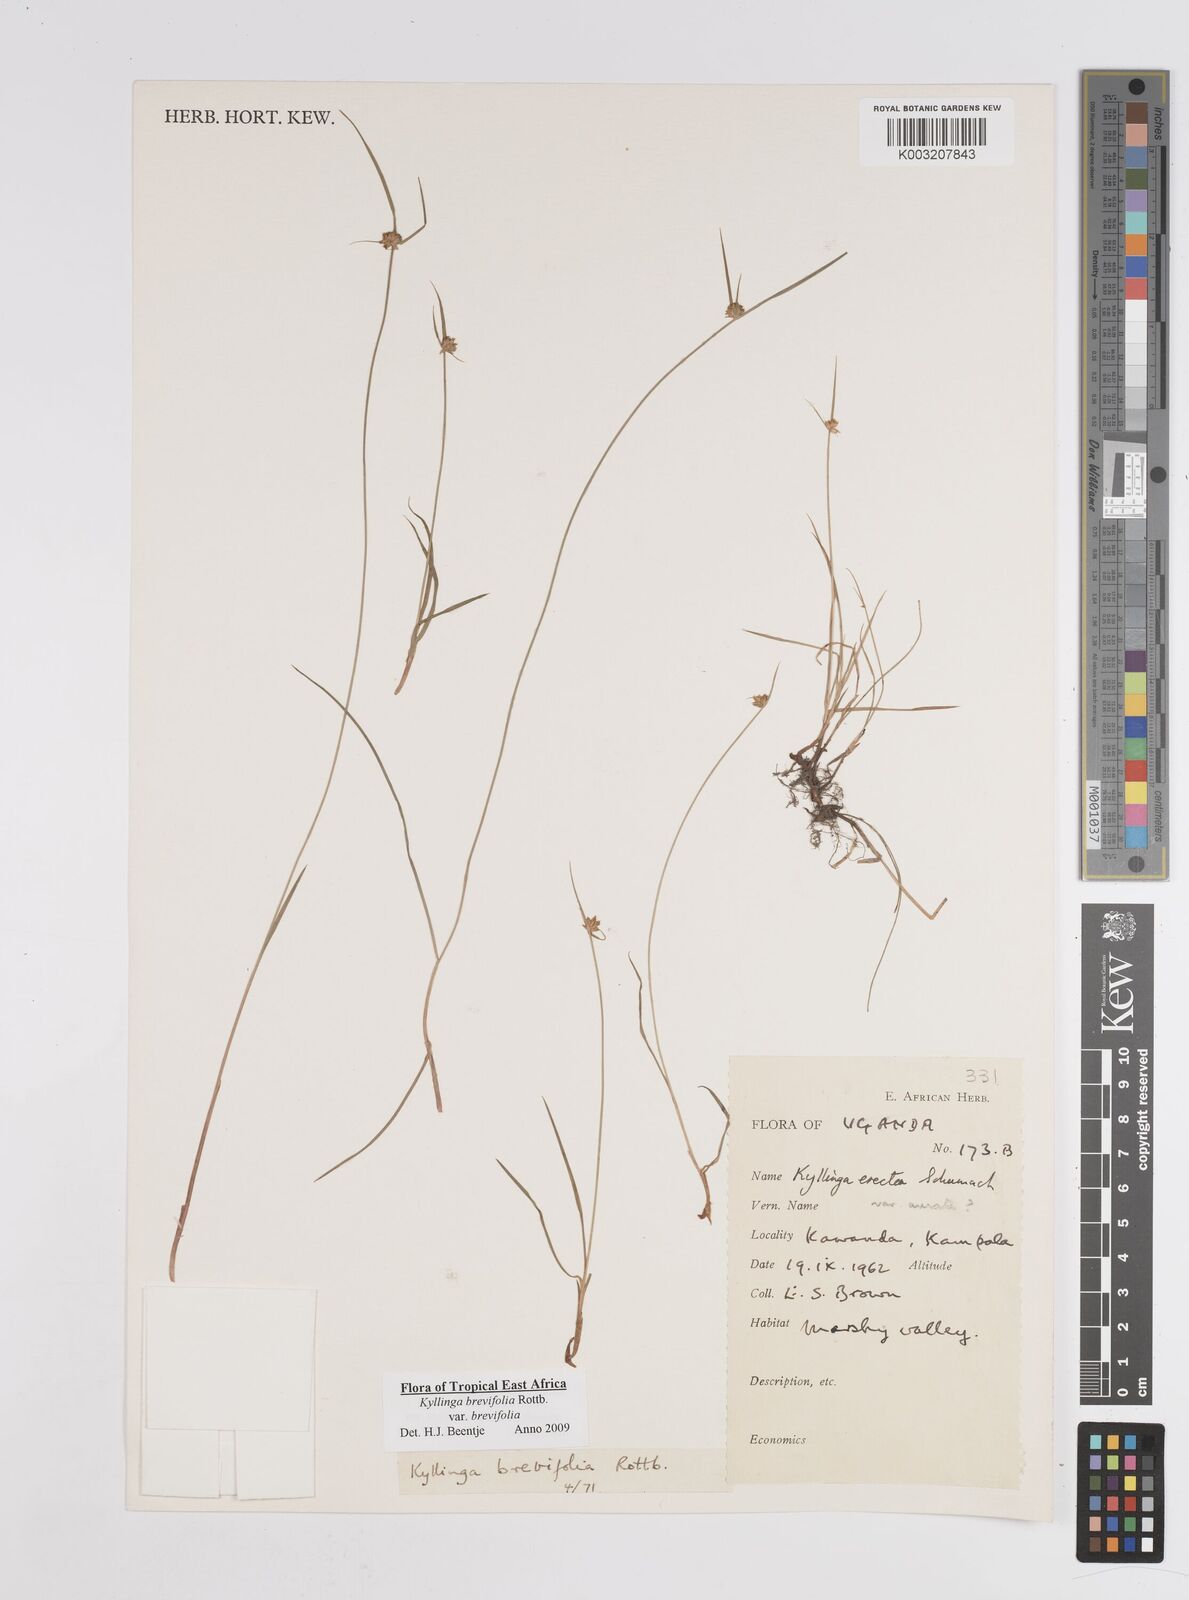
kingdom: Plantae
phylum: Tracheophyta
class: Liliopsida
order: Poales
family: Cyperaceae
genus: Cyperus
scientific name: Cyperus erectus
